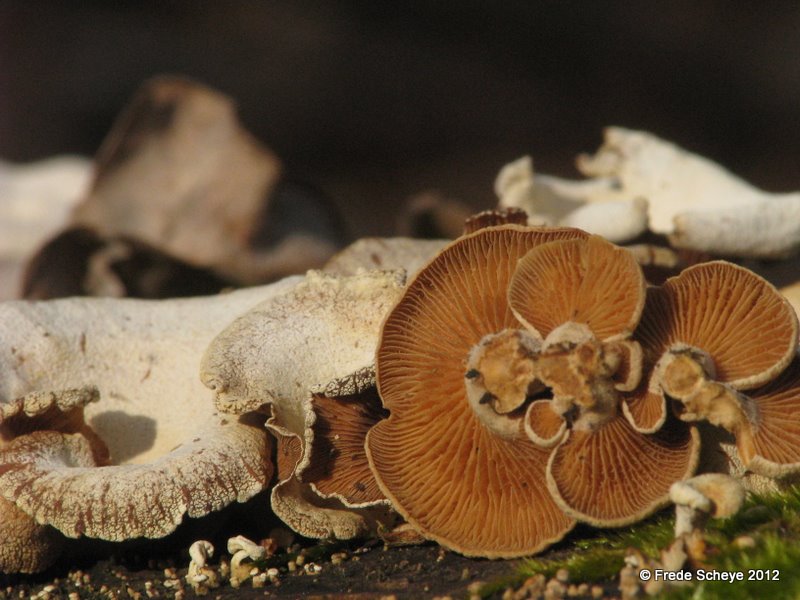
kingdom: Fungi
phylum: Basidiomycota
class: Agaricomycetes
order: Agaricales
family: Mycenaceae
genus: Panellus
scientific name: Panellus stipticus
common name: kliddet epaulethat
